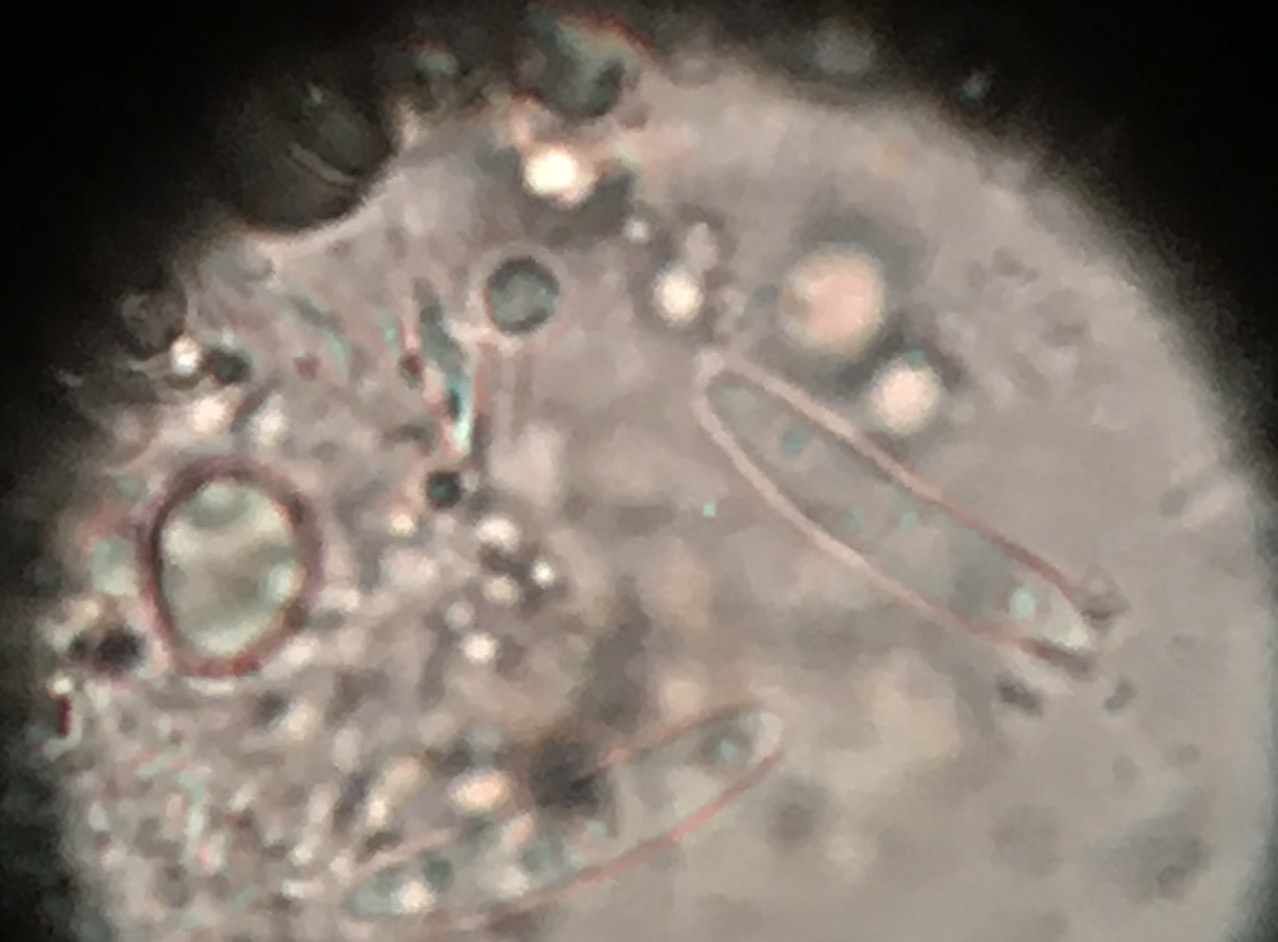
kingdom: Fungi
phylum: Ascomycota
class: Sordariomycetes
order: Diaporthales
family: Gnomoniaceae
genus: Ophiognomonia
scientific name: Ophiognomonia setacea
